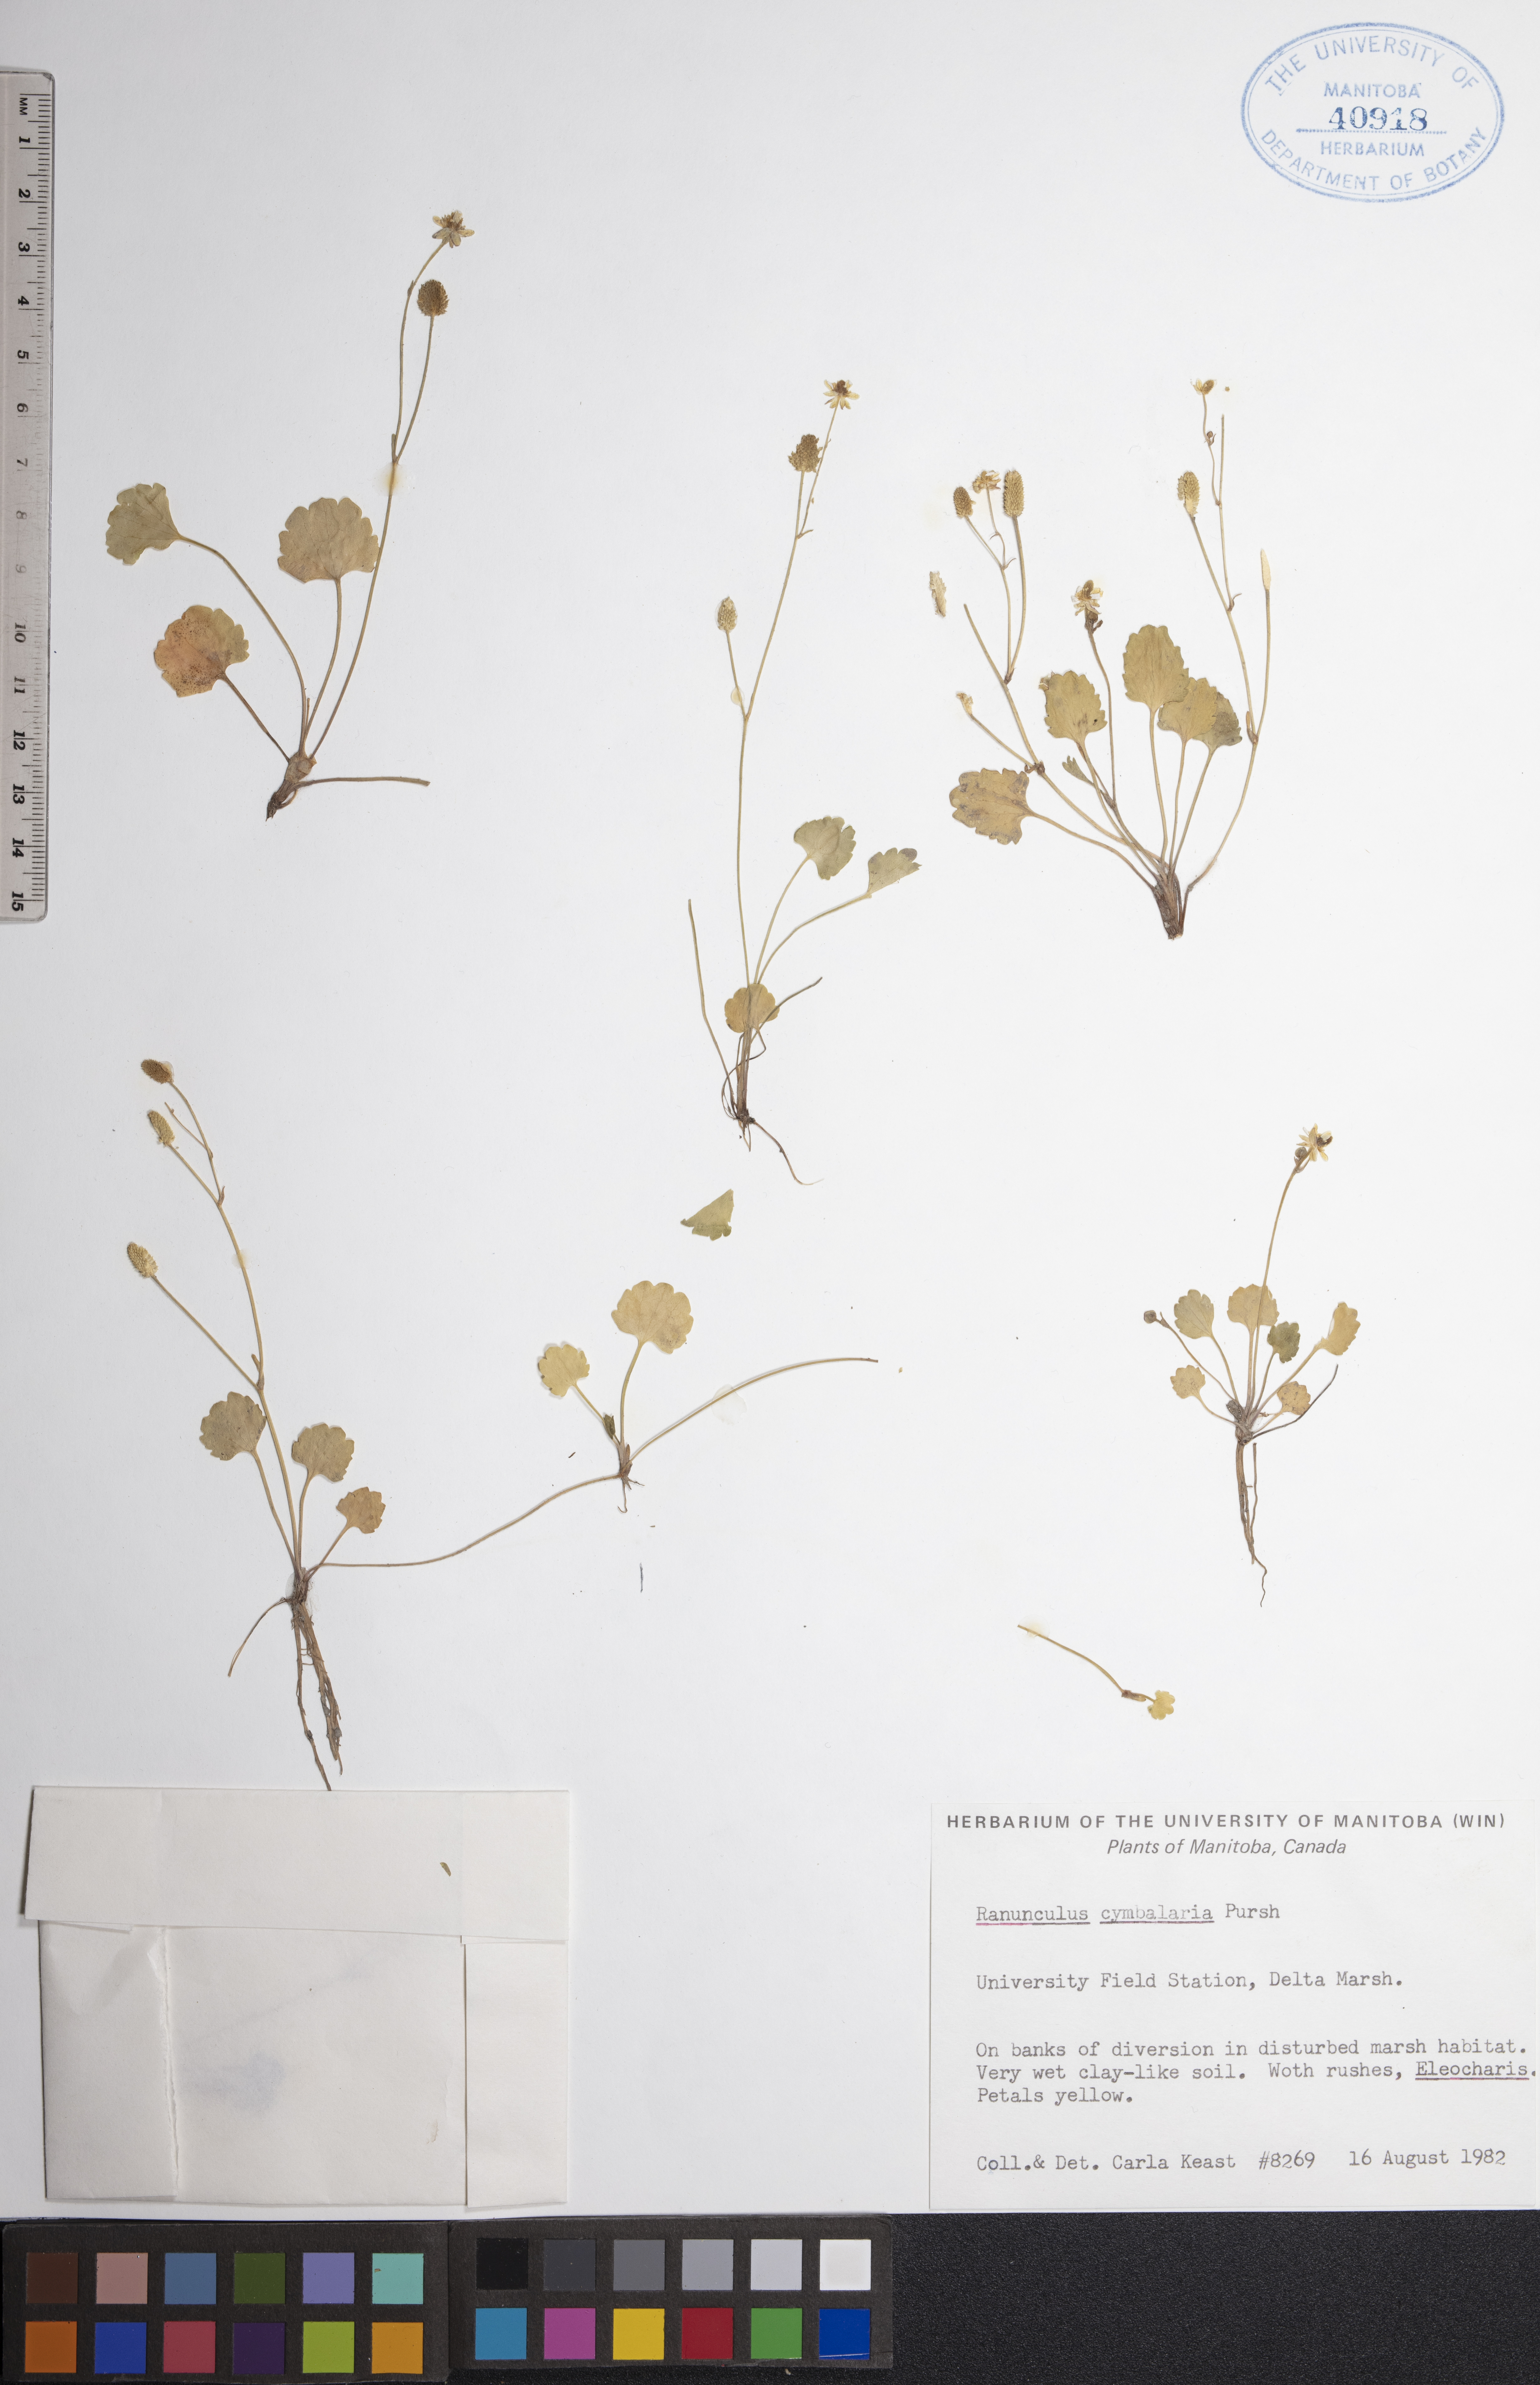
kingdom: Plantae
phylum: Tracheophyta
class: Magnoliopsida
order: Ranunculales
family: Ranunculaceae
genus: Halerpestes
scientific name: Halerpestes cymbalaria
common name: Seaside crowfoot
